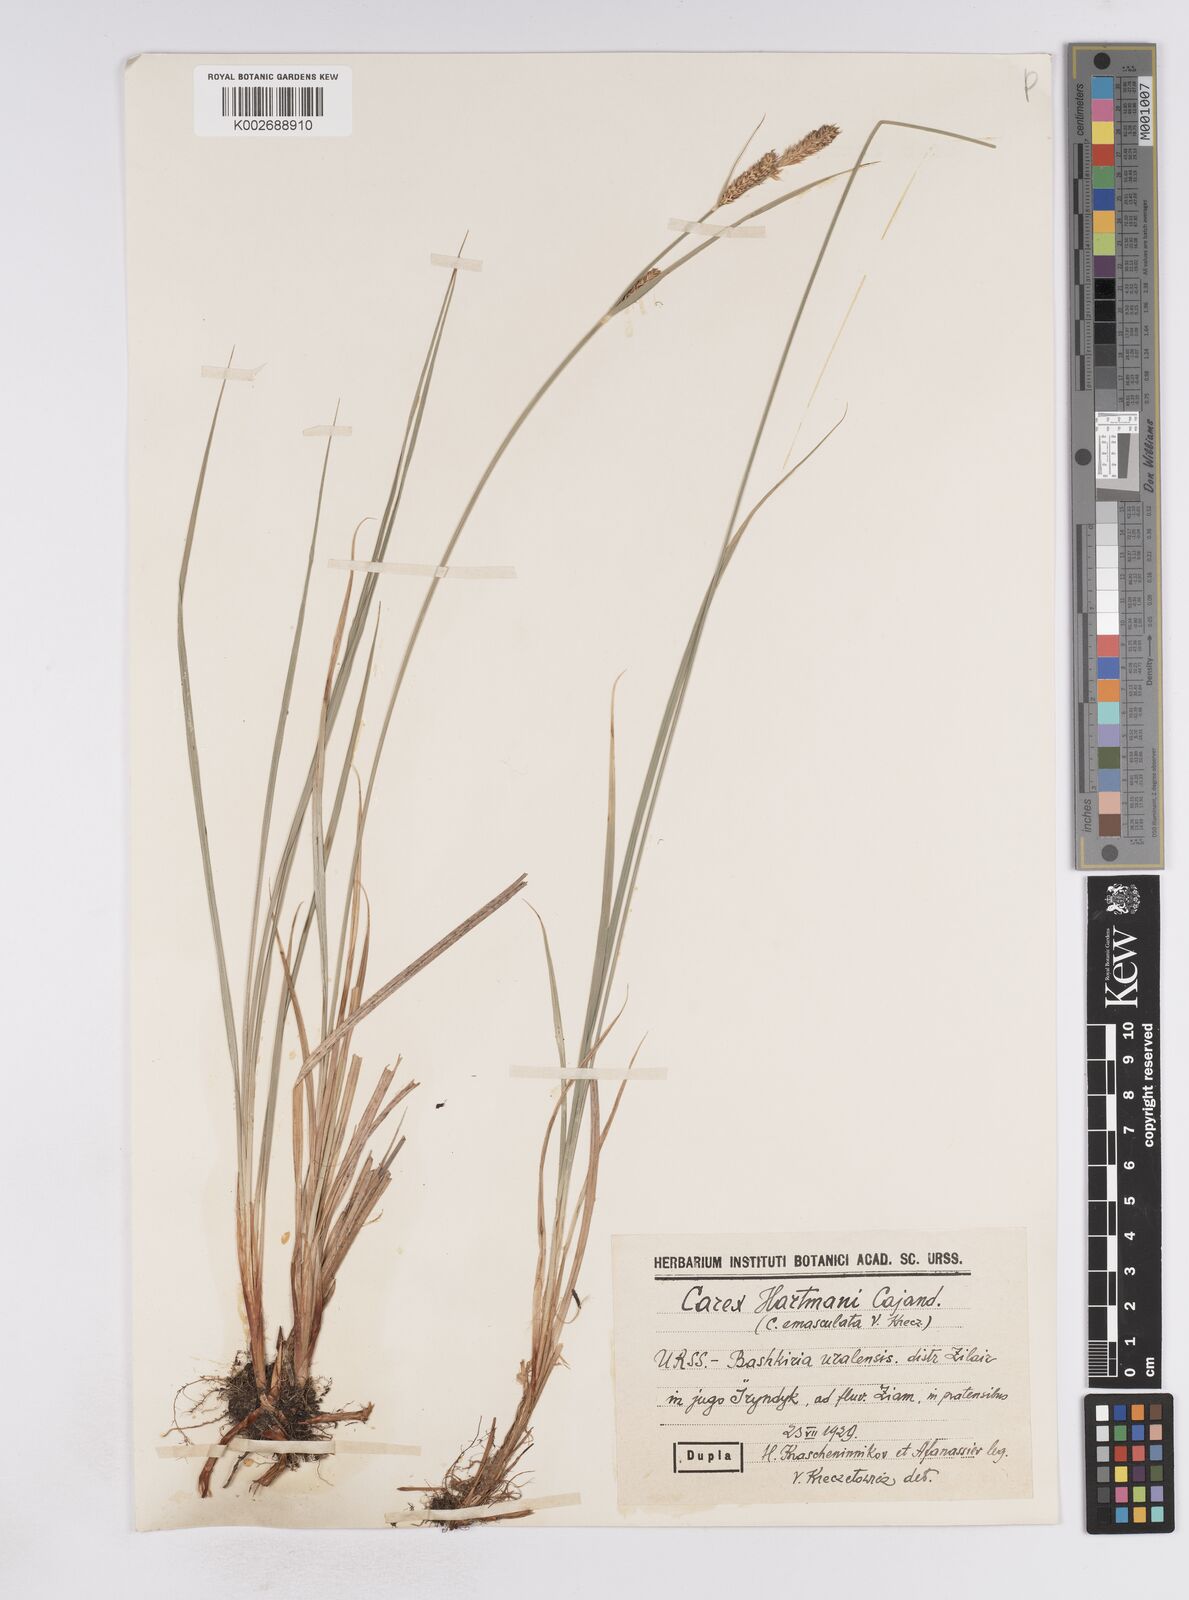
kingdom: Plantae
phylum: Tracheophyta
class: Liliopsida
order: Poales
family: Cyperaceae
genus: Carex
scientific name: Carex hartmaniorum
